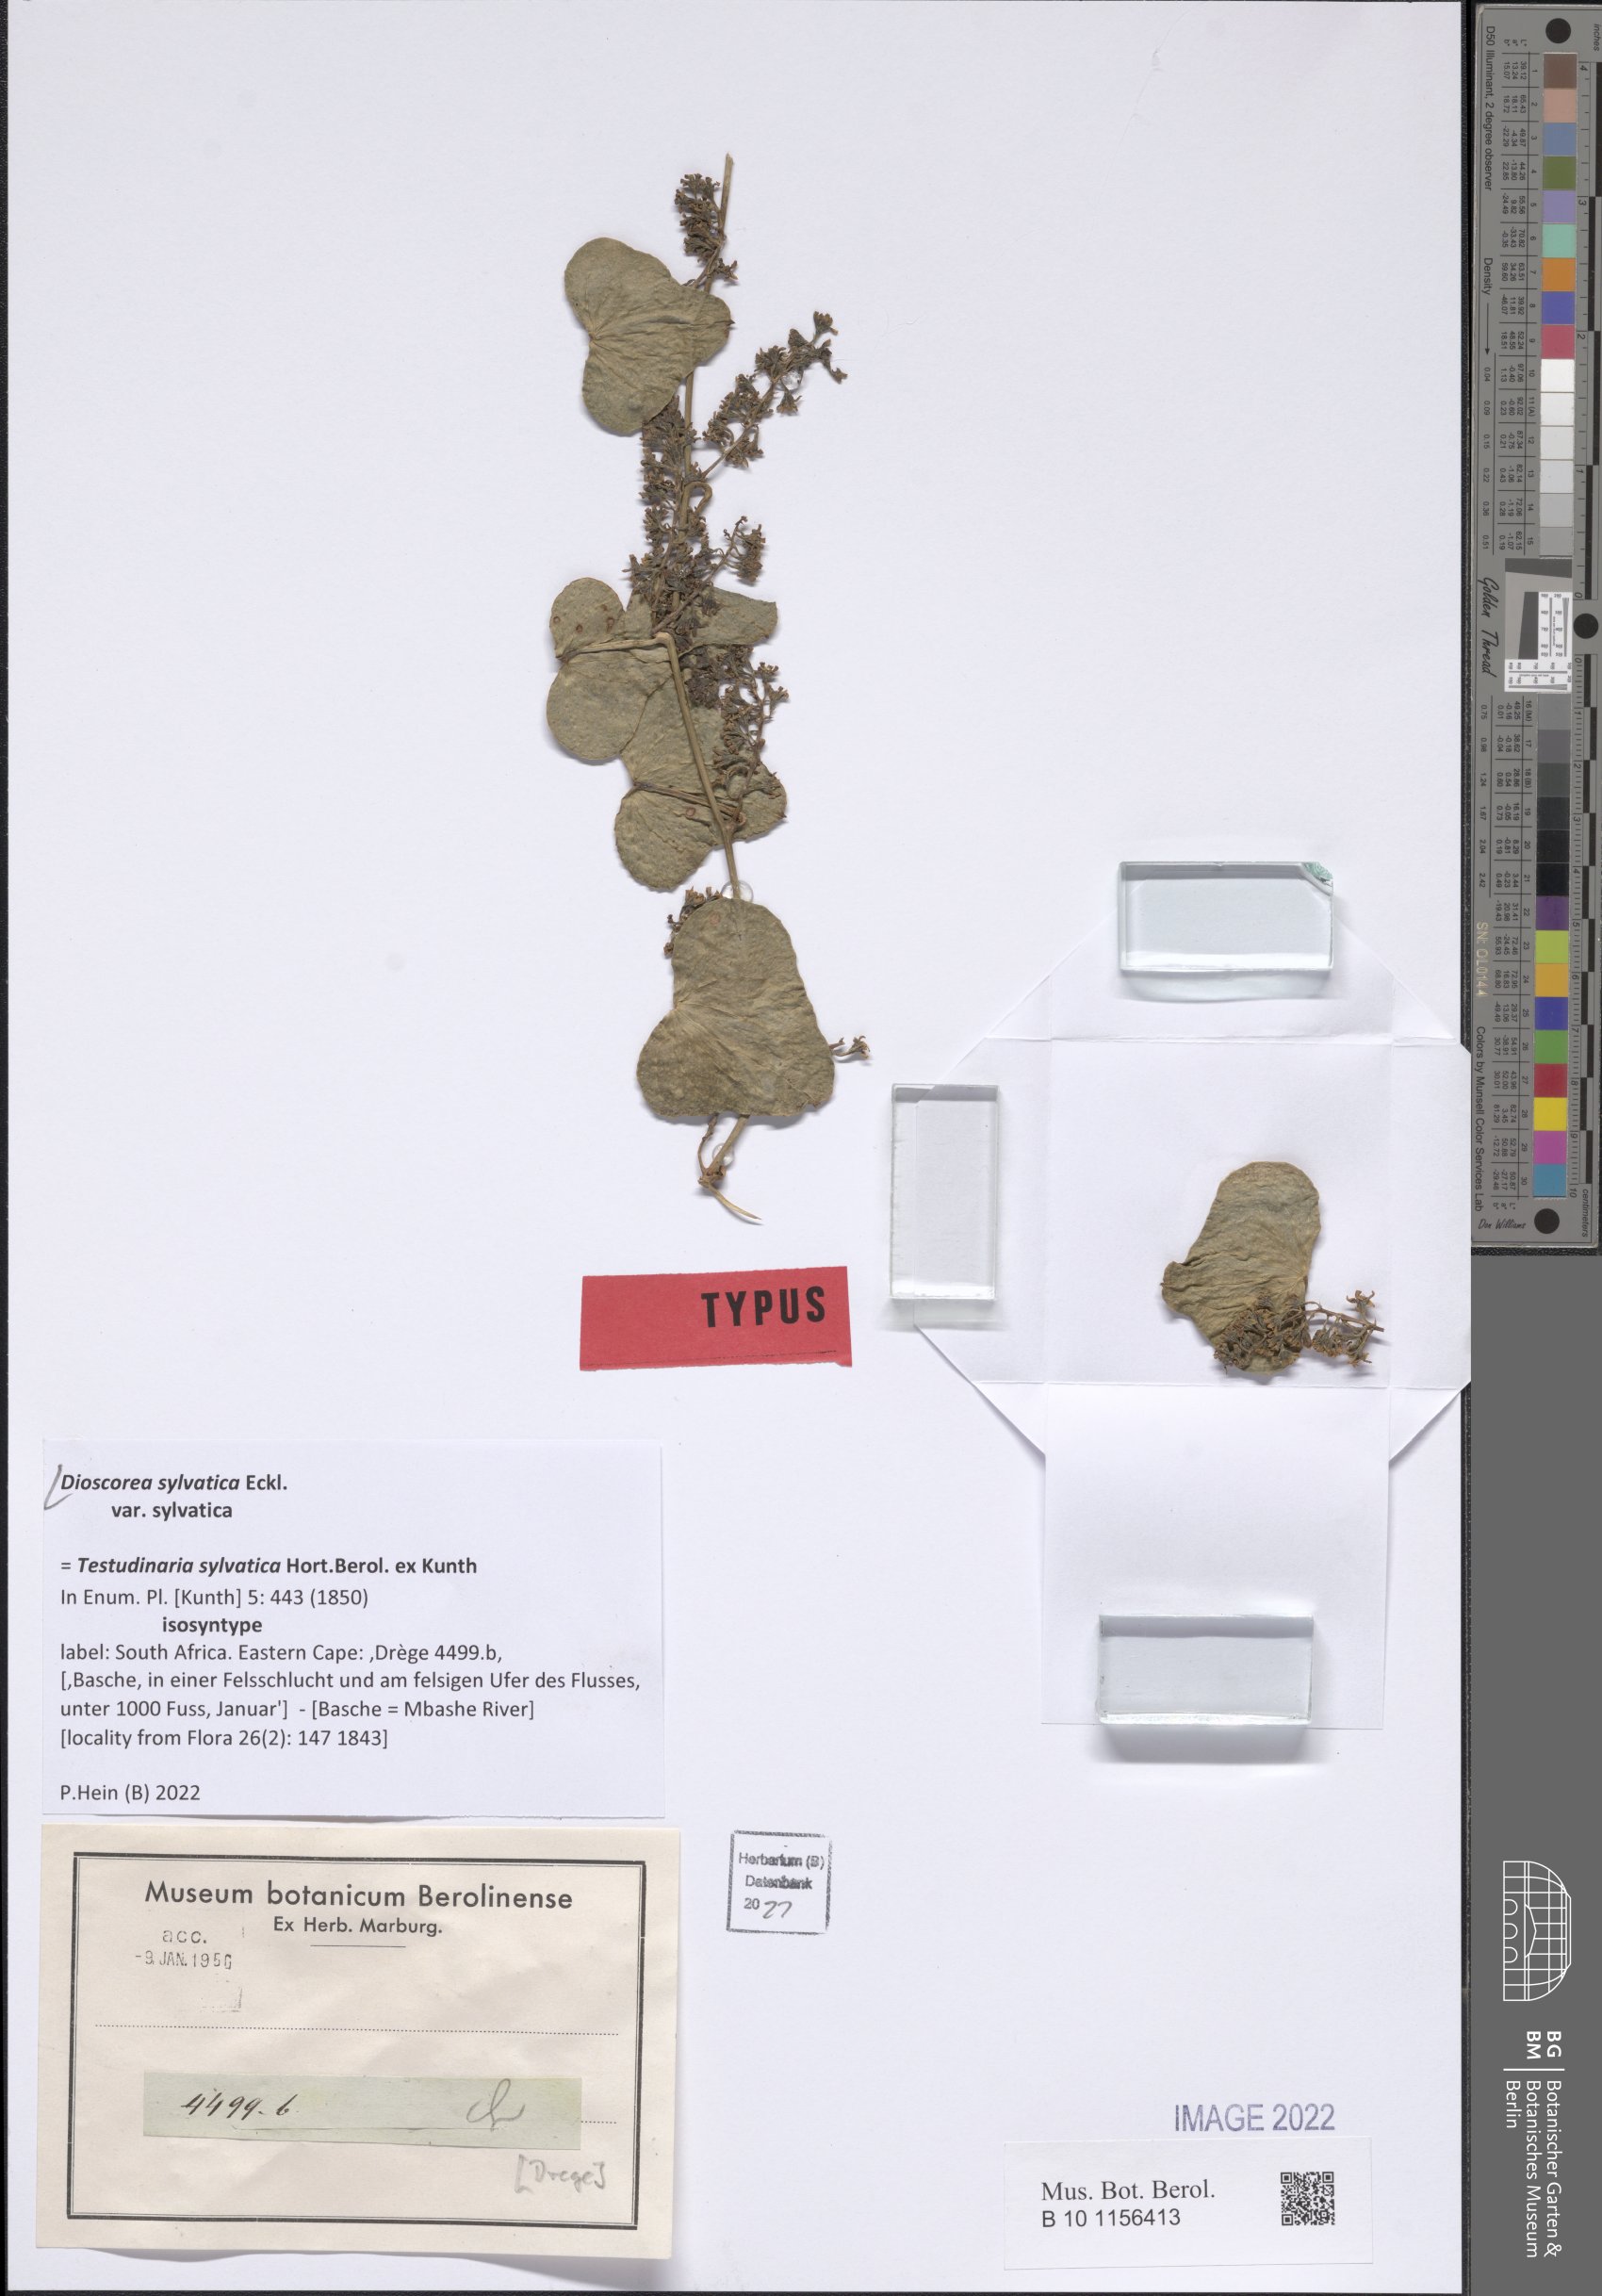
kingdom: Plantae
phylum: Tracheophyta
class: Liliopsida
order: Dioscoreales
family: Dioscoreaceae
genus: Dioscorea
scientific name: Dioscorea sylvatica
